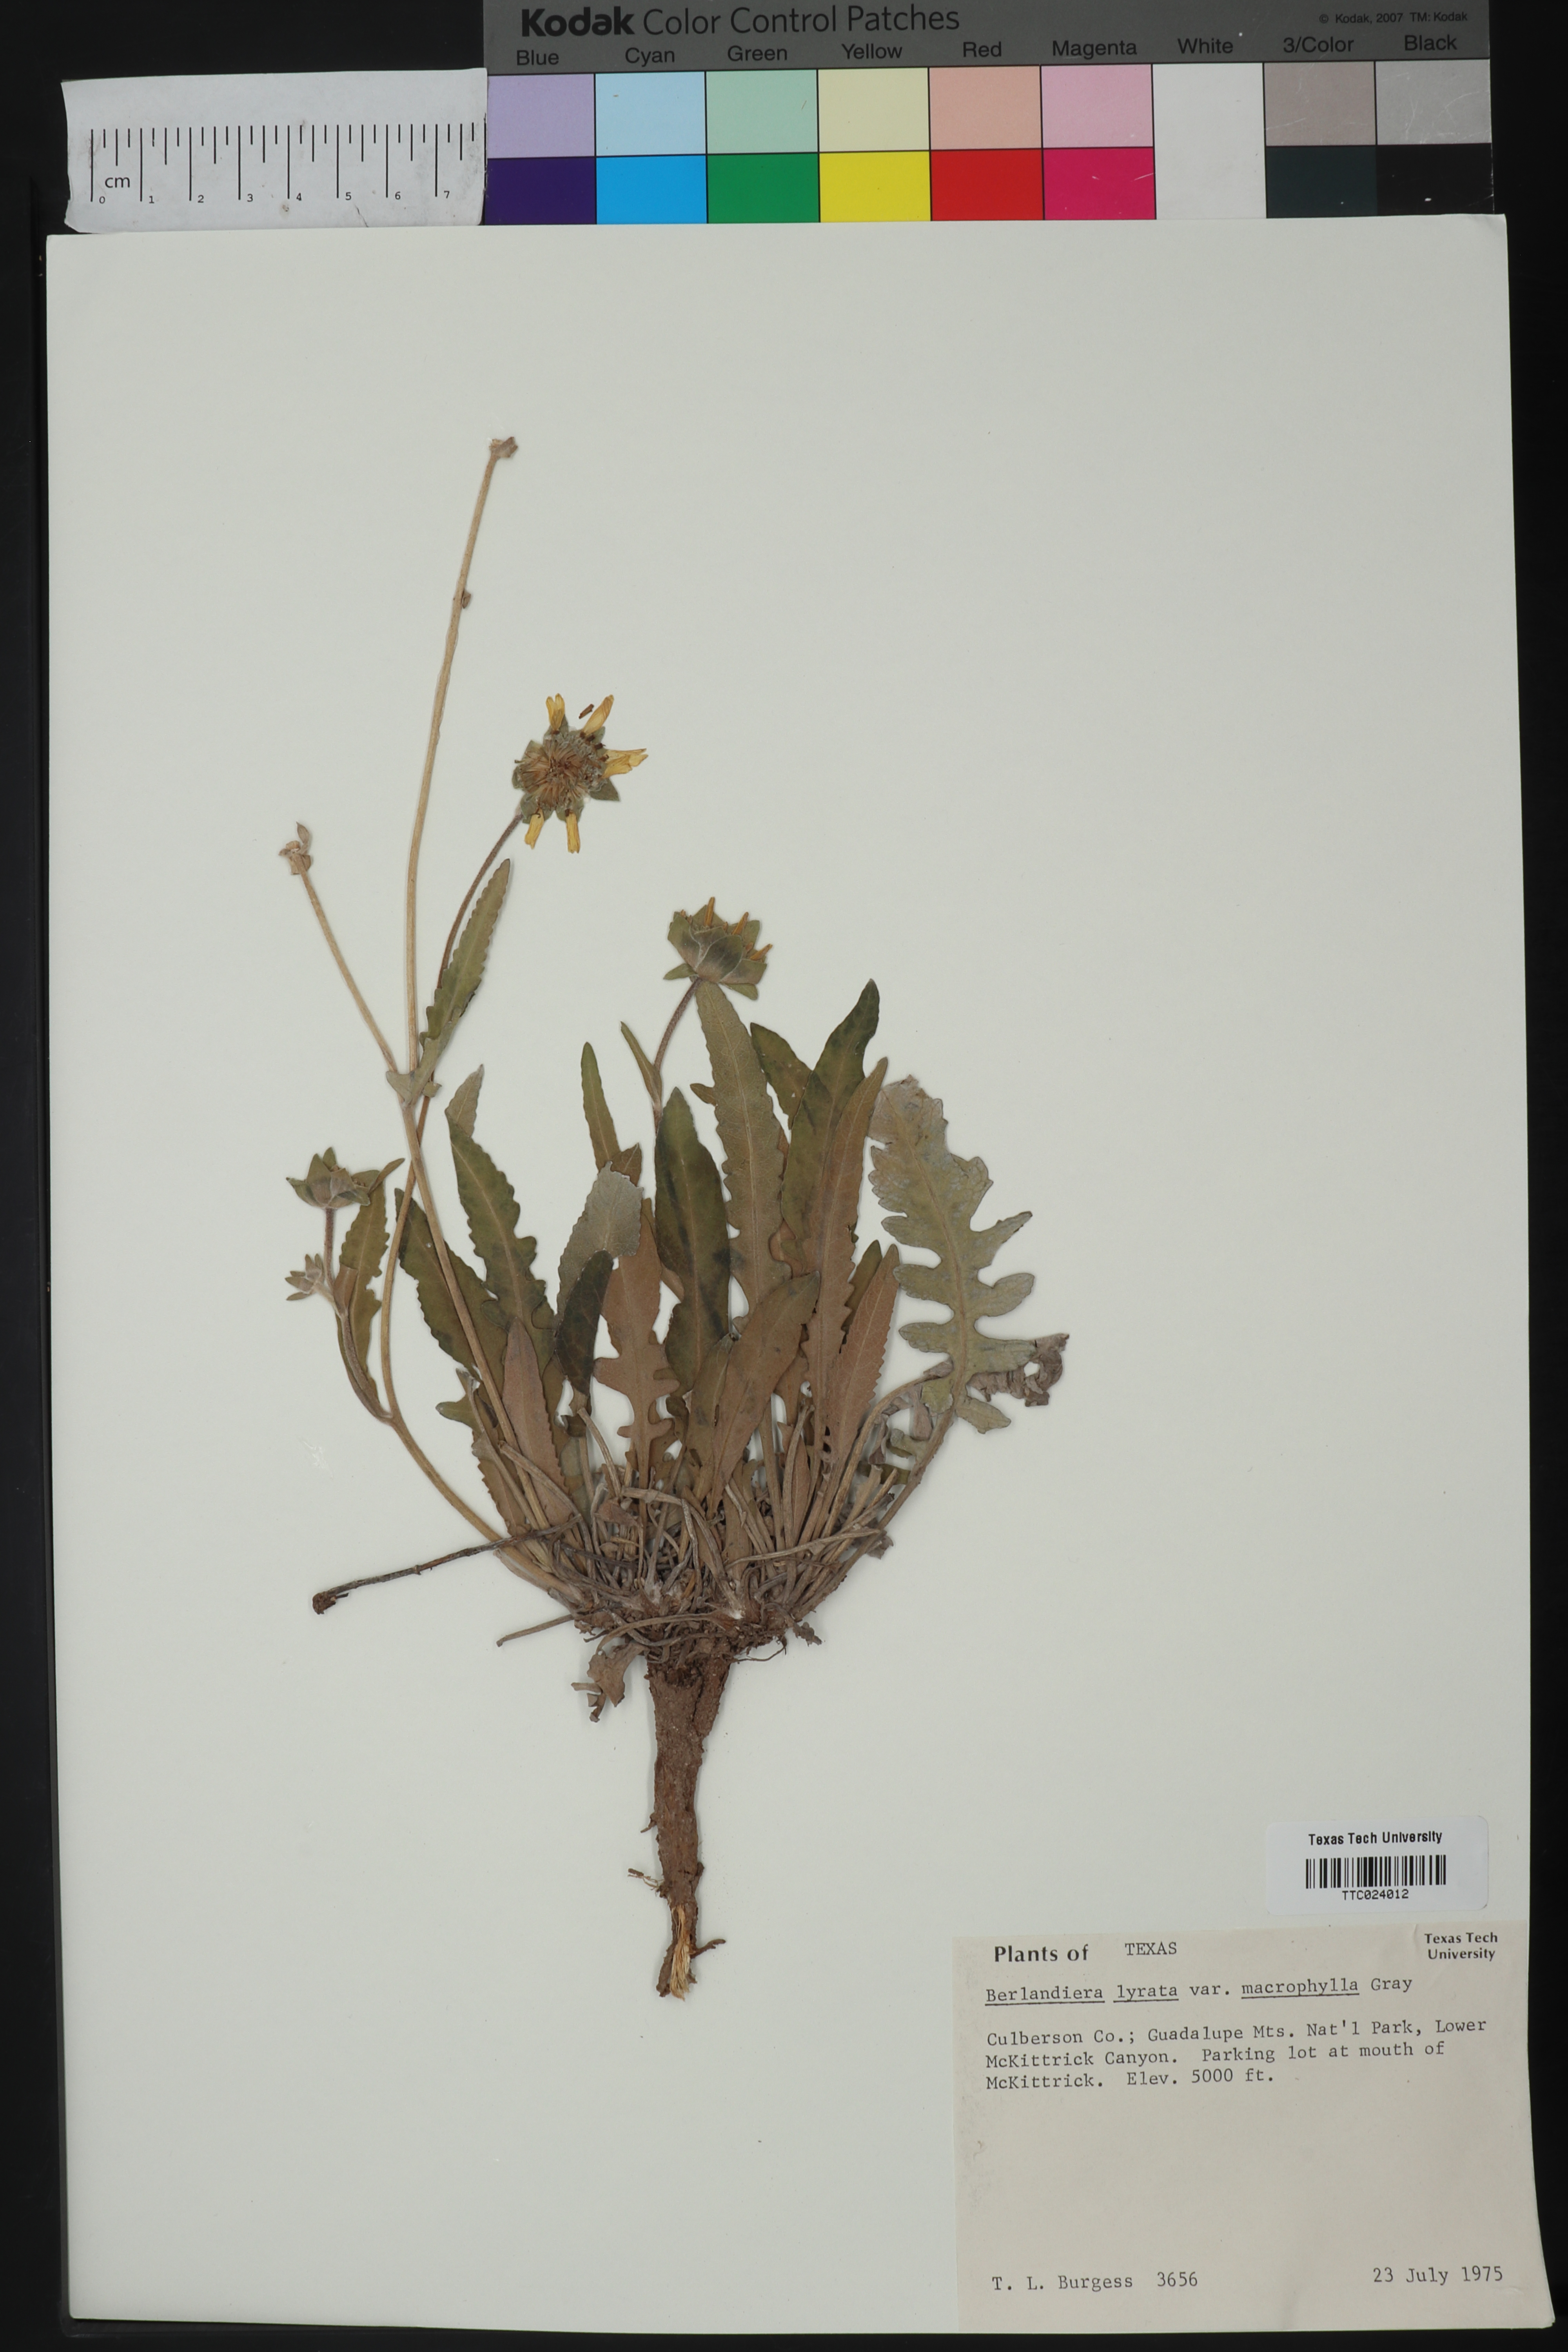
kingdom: Plantae
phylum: Tracheophyta
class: Magnoliopsida
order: Asterales
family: Asteraceae
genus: Berlandiera
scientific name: Berlandiera macrophylla
